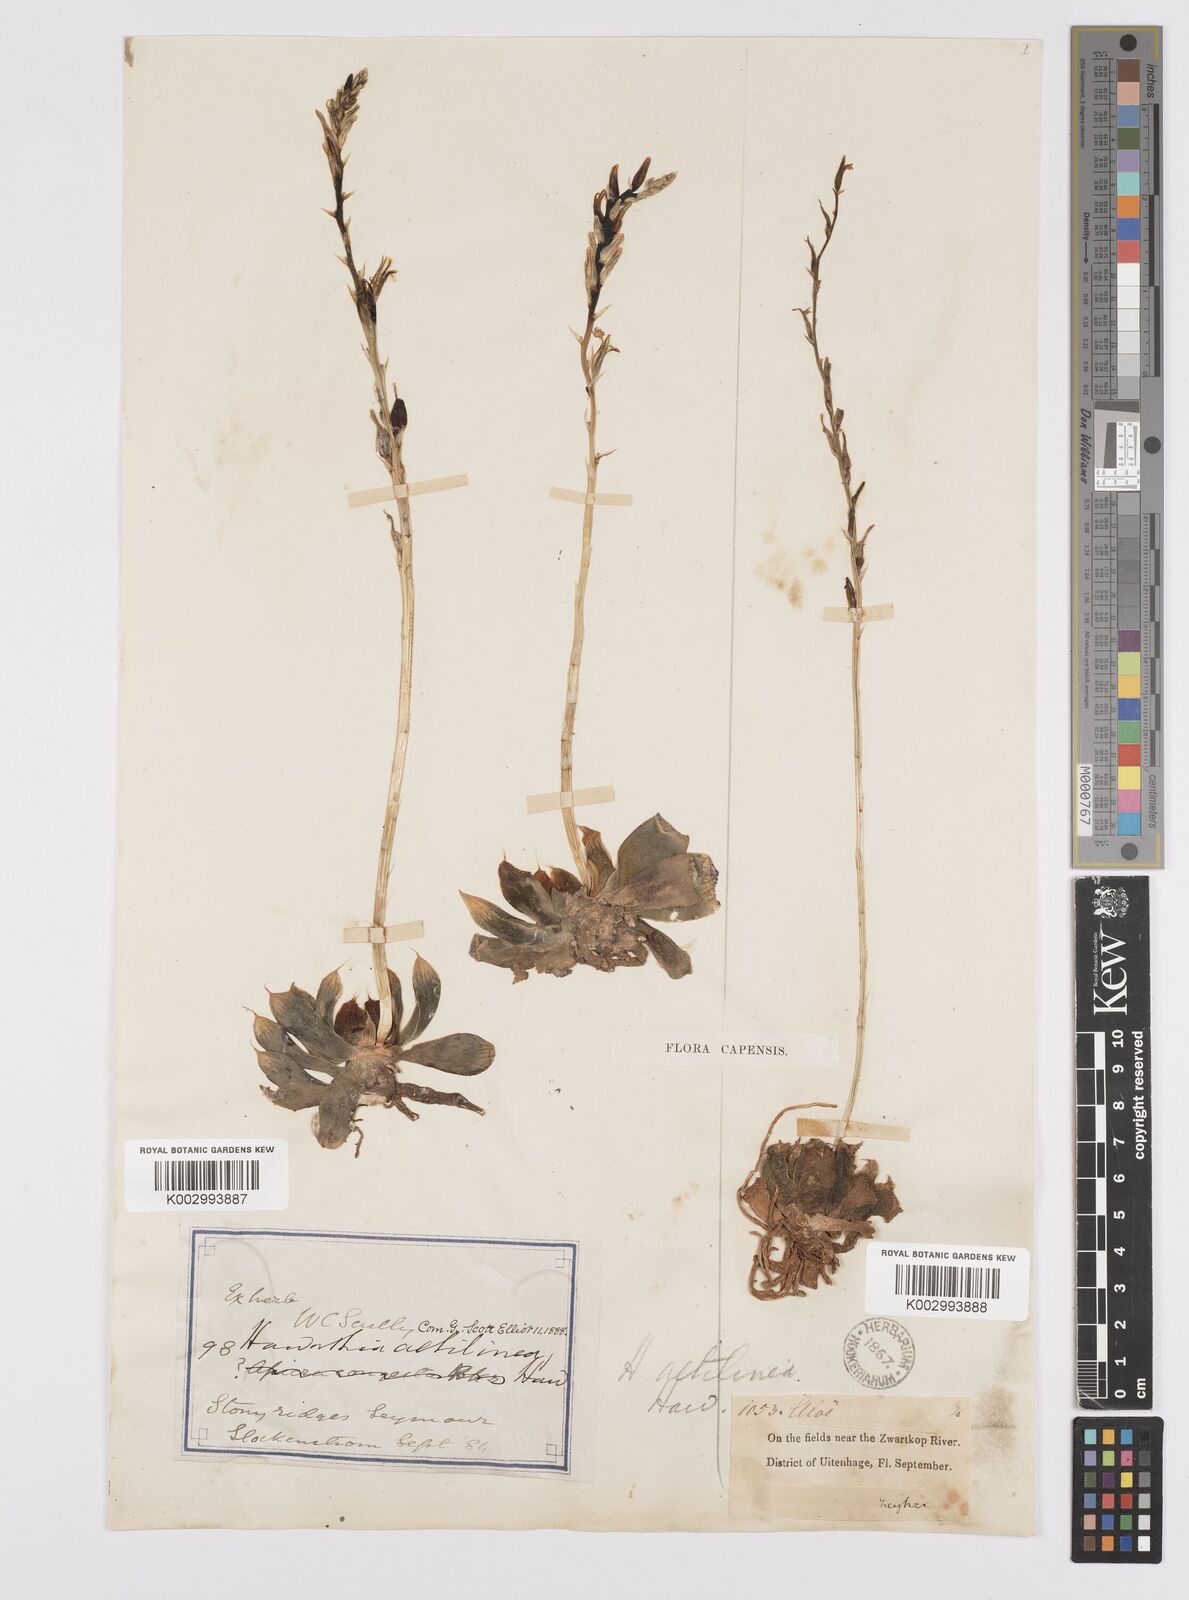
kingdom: Plantae
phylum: Tracheophyta
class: Liliopsida
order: Asparagales
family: Asphodelaceae
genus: Haworthia
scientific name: Haworthia mucronata
